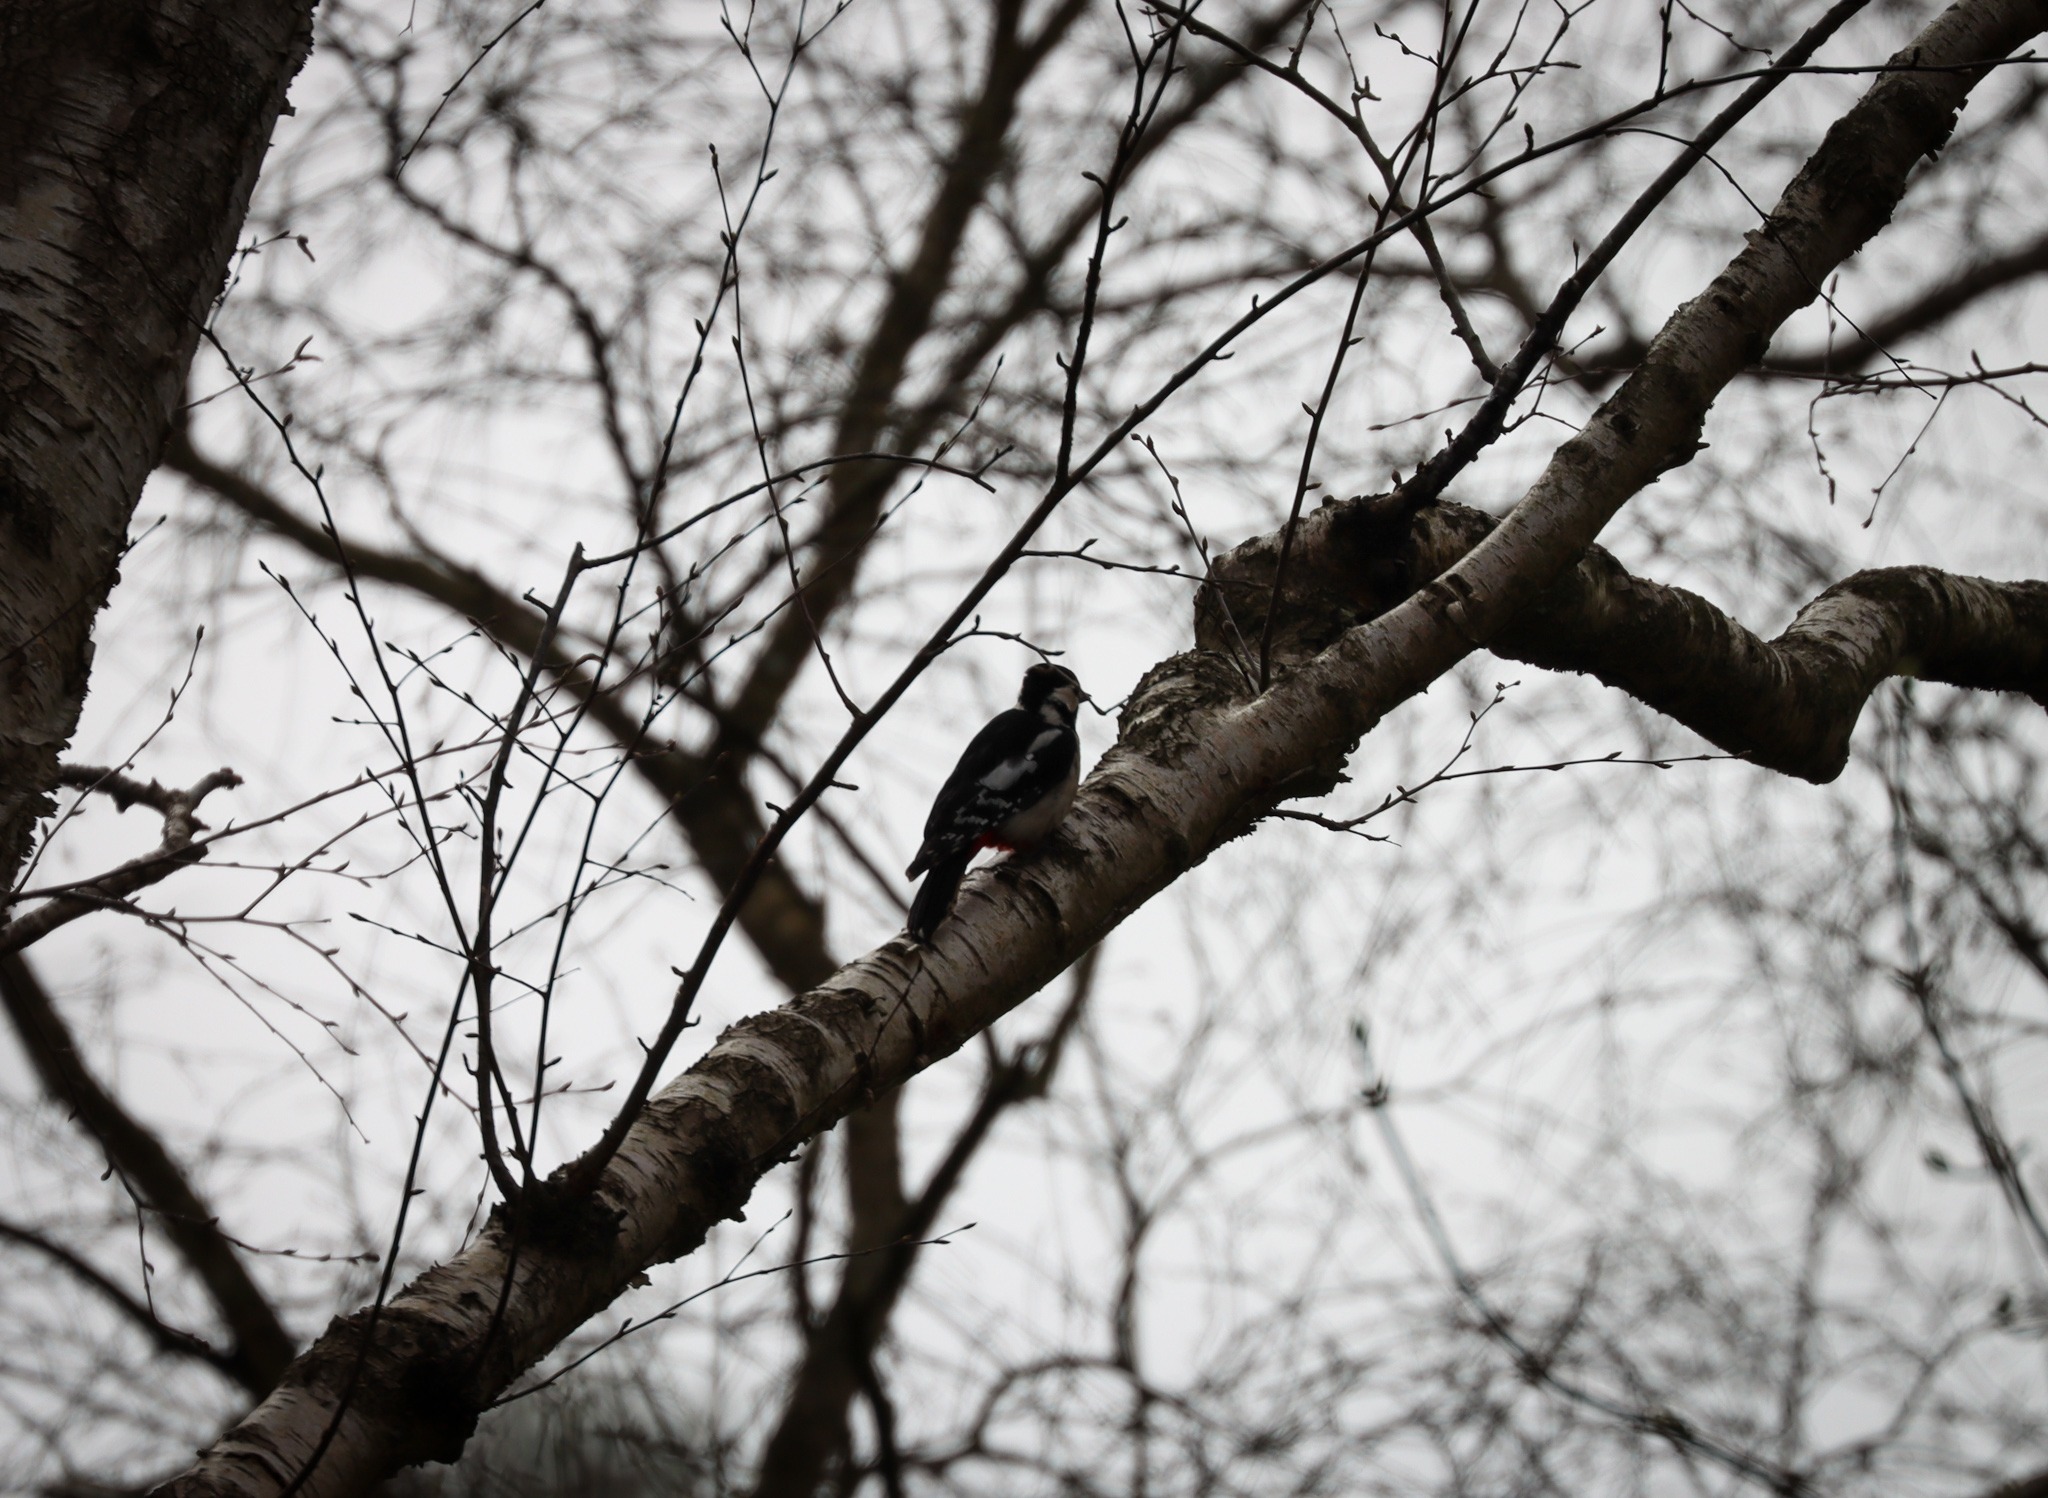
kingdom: Animalia
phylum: Chordata
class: Aves
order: Piciformes
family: Picidae
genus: Dendrocopos
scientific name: Dendrocopos major
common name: Stor flagspætte
